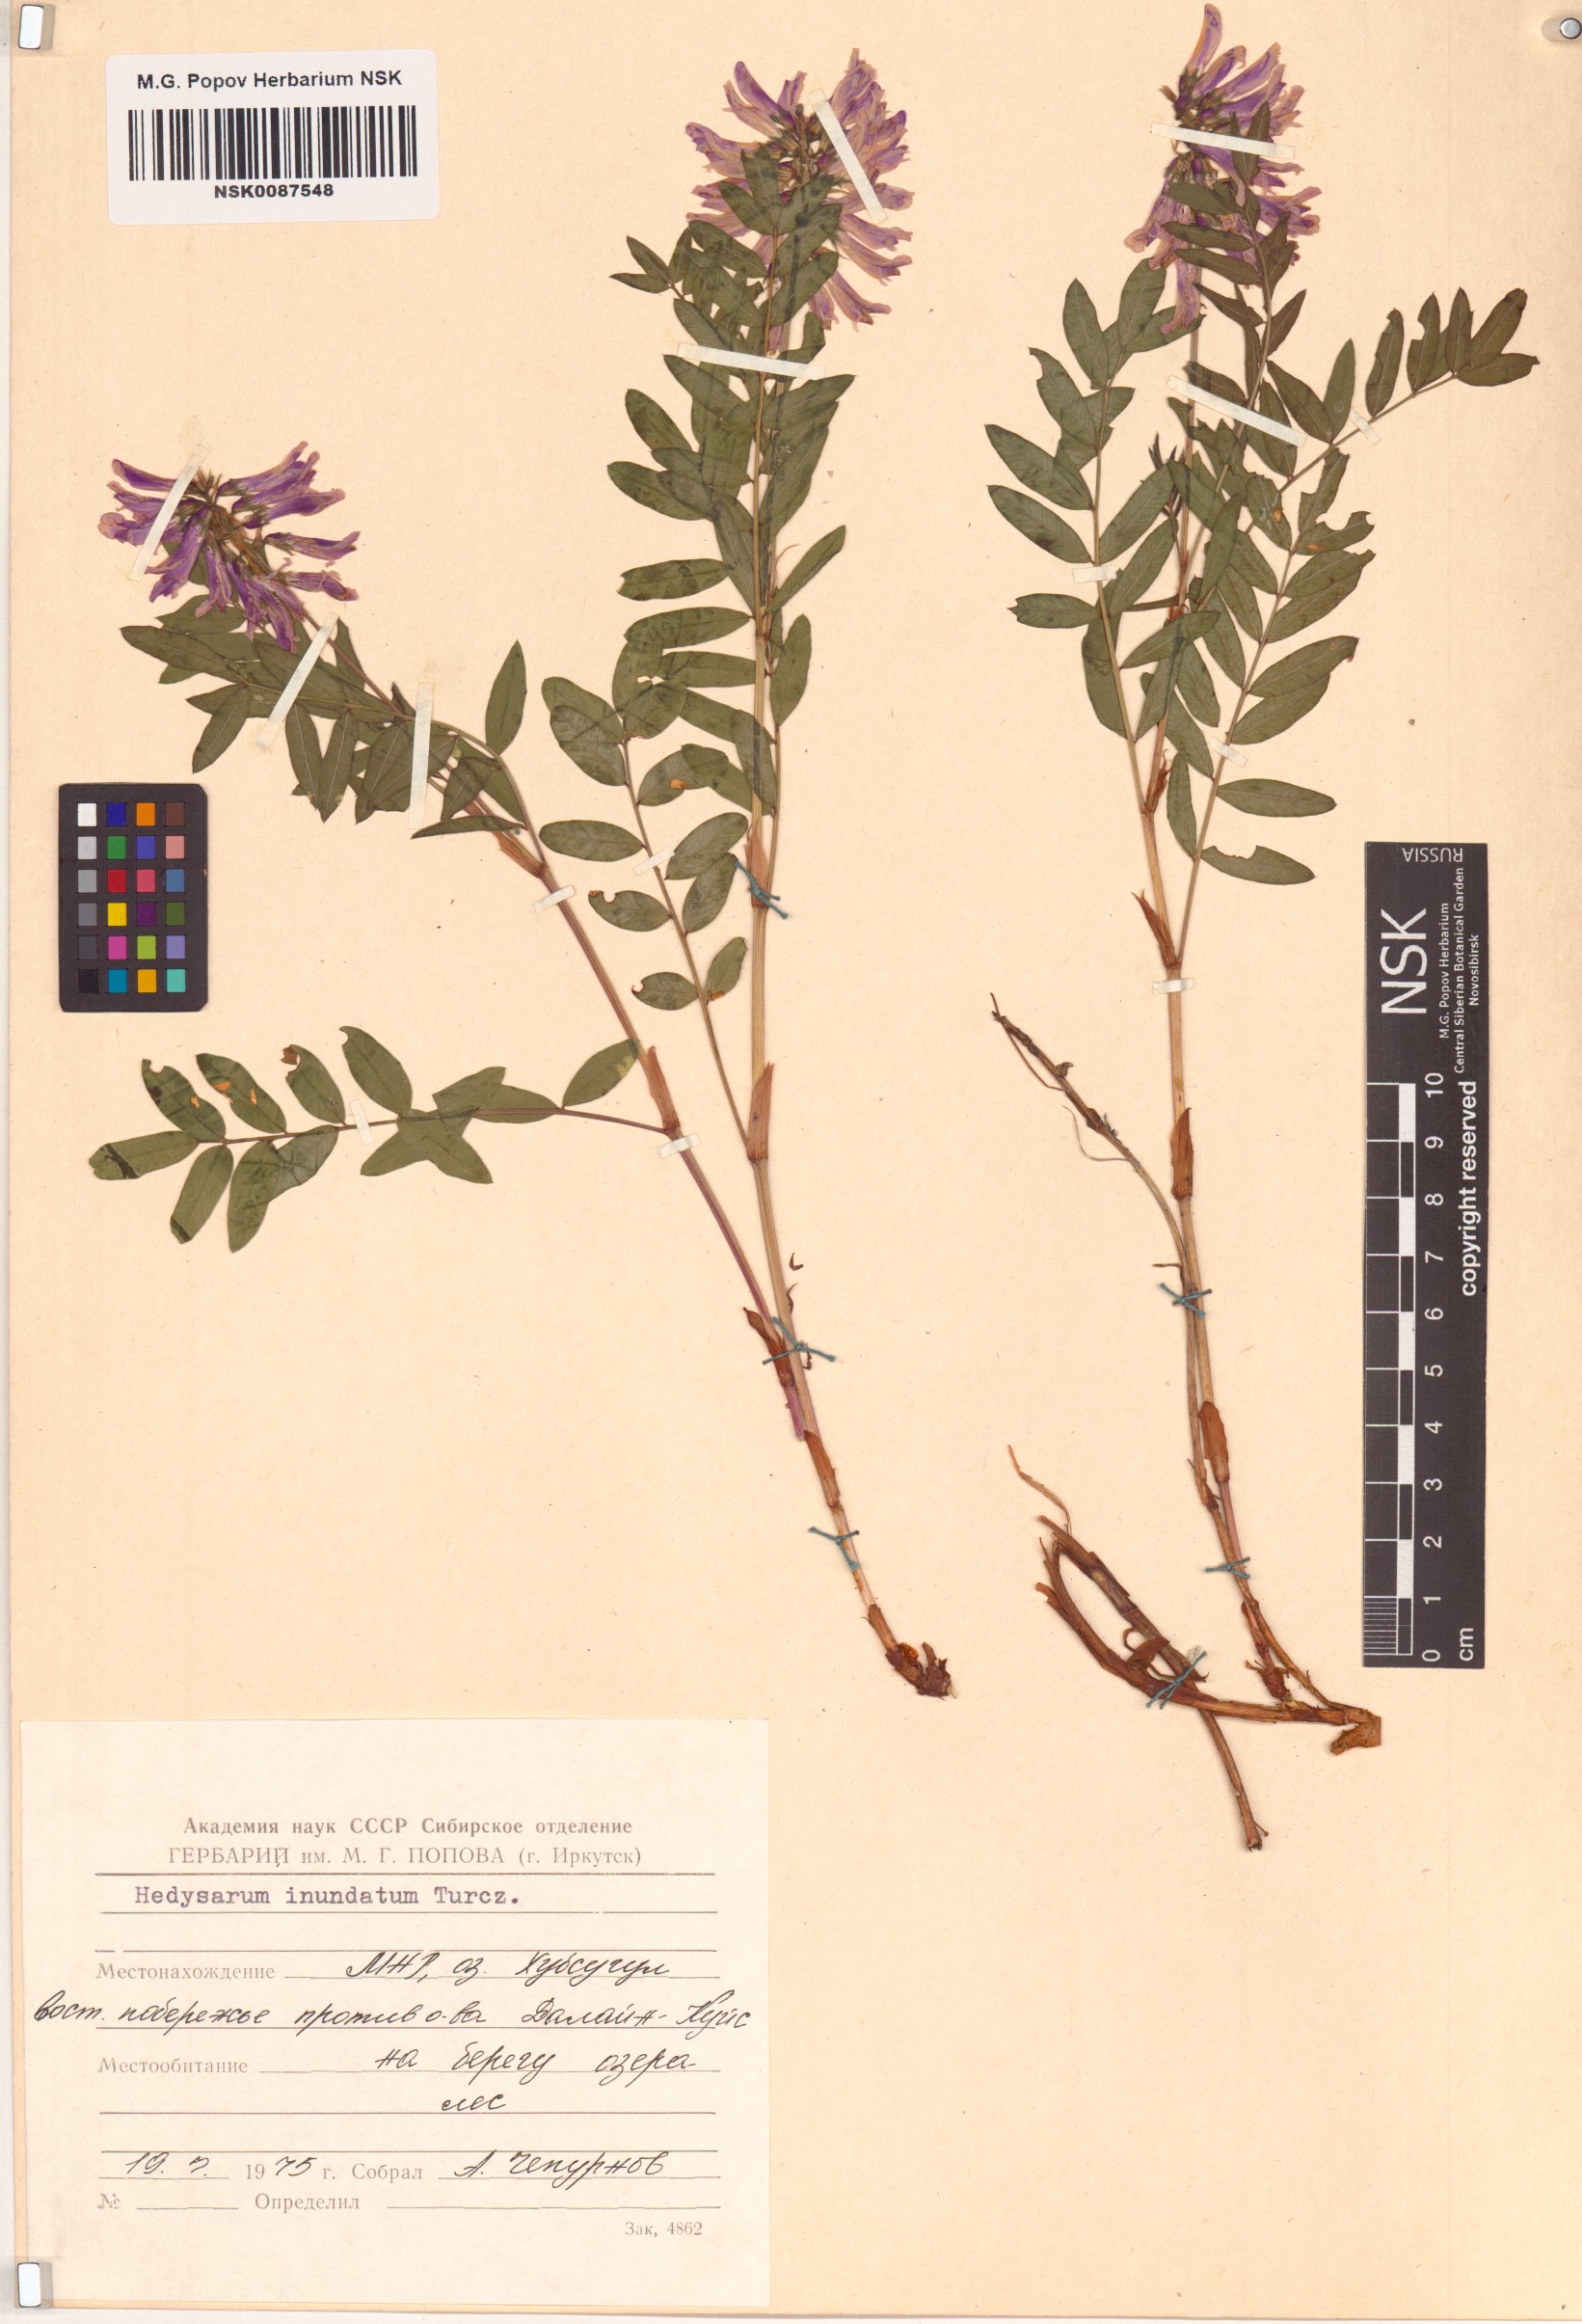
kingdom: Plantae
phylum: Tracheophyta
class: Magnoliopsida
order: Fabales
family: Fabaceae
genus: Hedysarum
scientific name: Hedysarum inundatum
